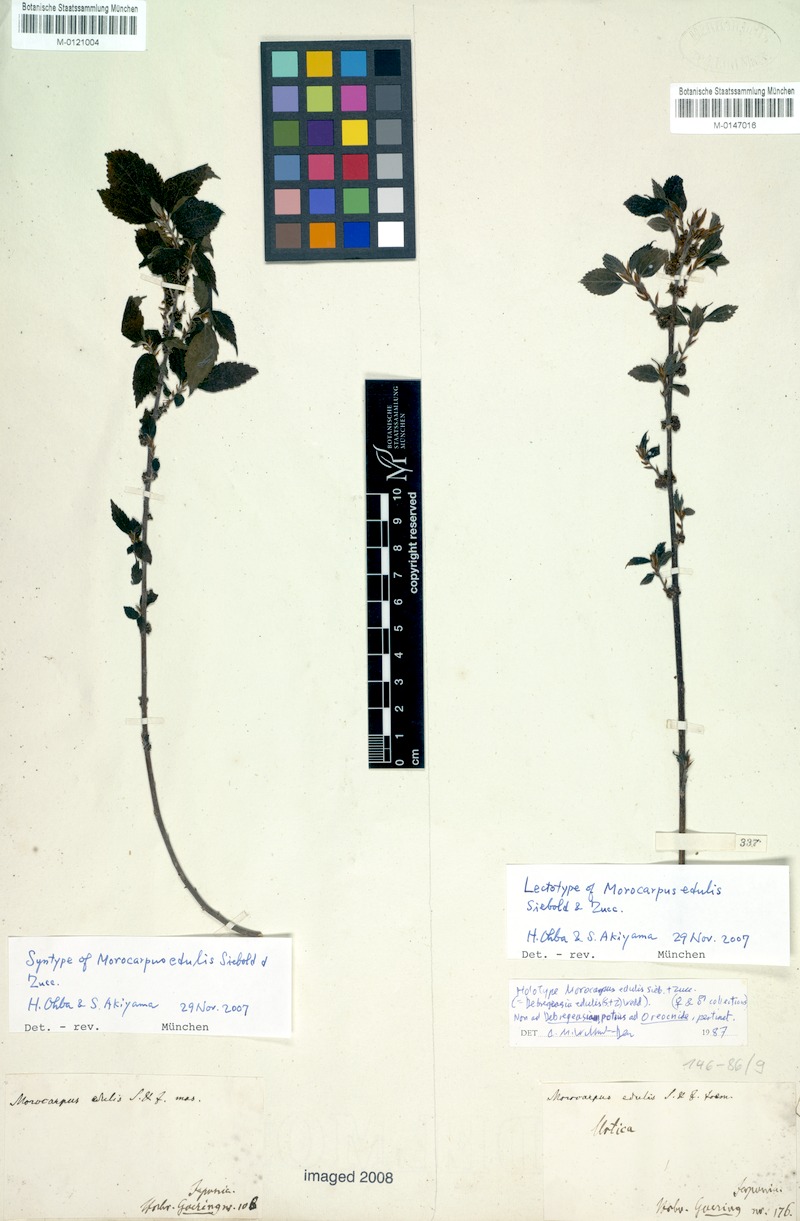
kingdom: Plantae
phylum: Tracheophyta
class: Magnoliopsida
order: Rosales
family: Urticaceae
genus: Debregeasia
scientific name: Debregeasia edulis
